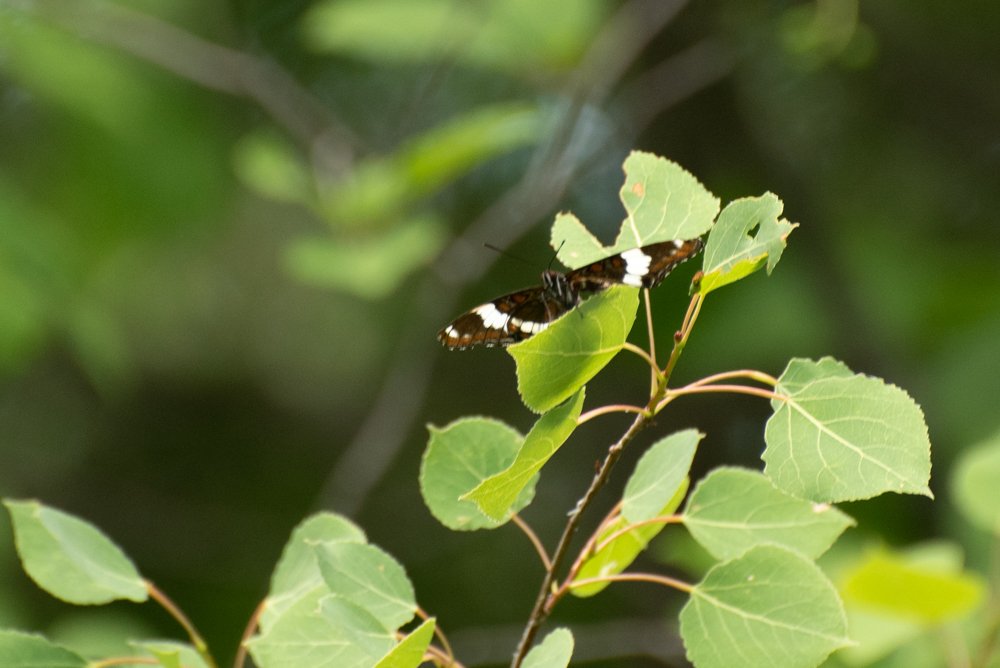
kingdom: Animalia
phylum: Arthropoda
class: Insecta
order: Lepidoptera
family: Nymphalidae
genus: Limenitis
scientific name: Limenitis arthemis
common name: Red-spotted Admiral
